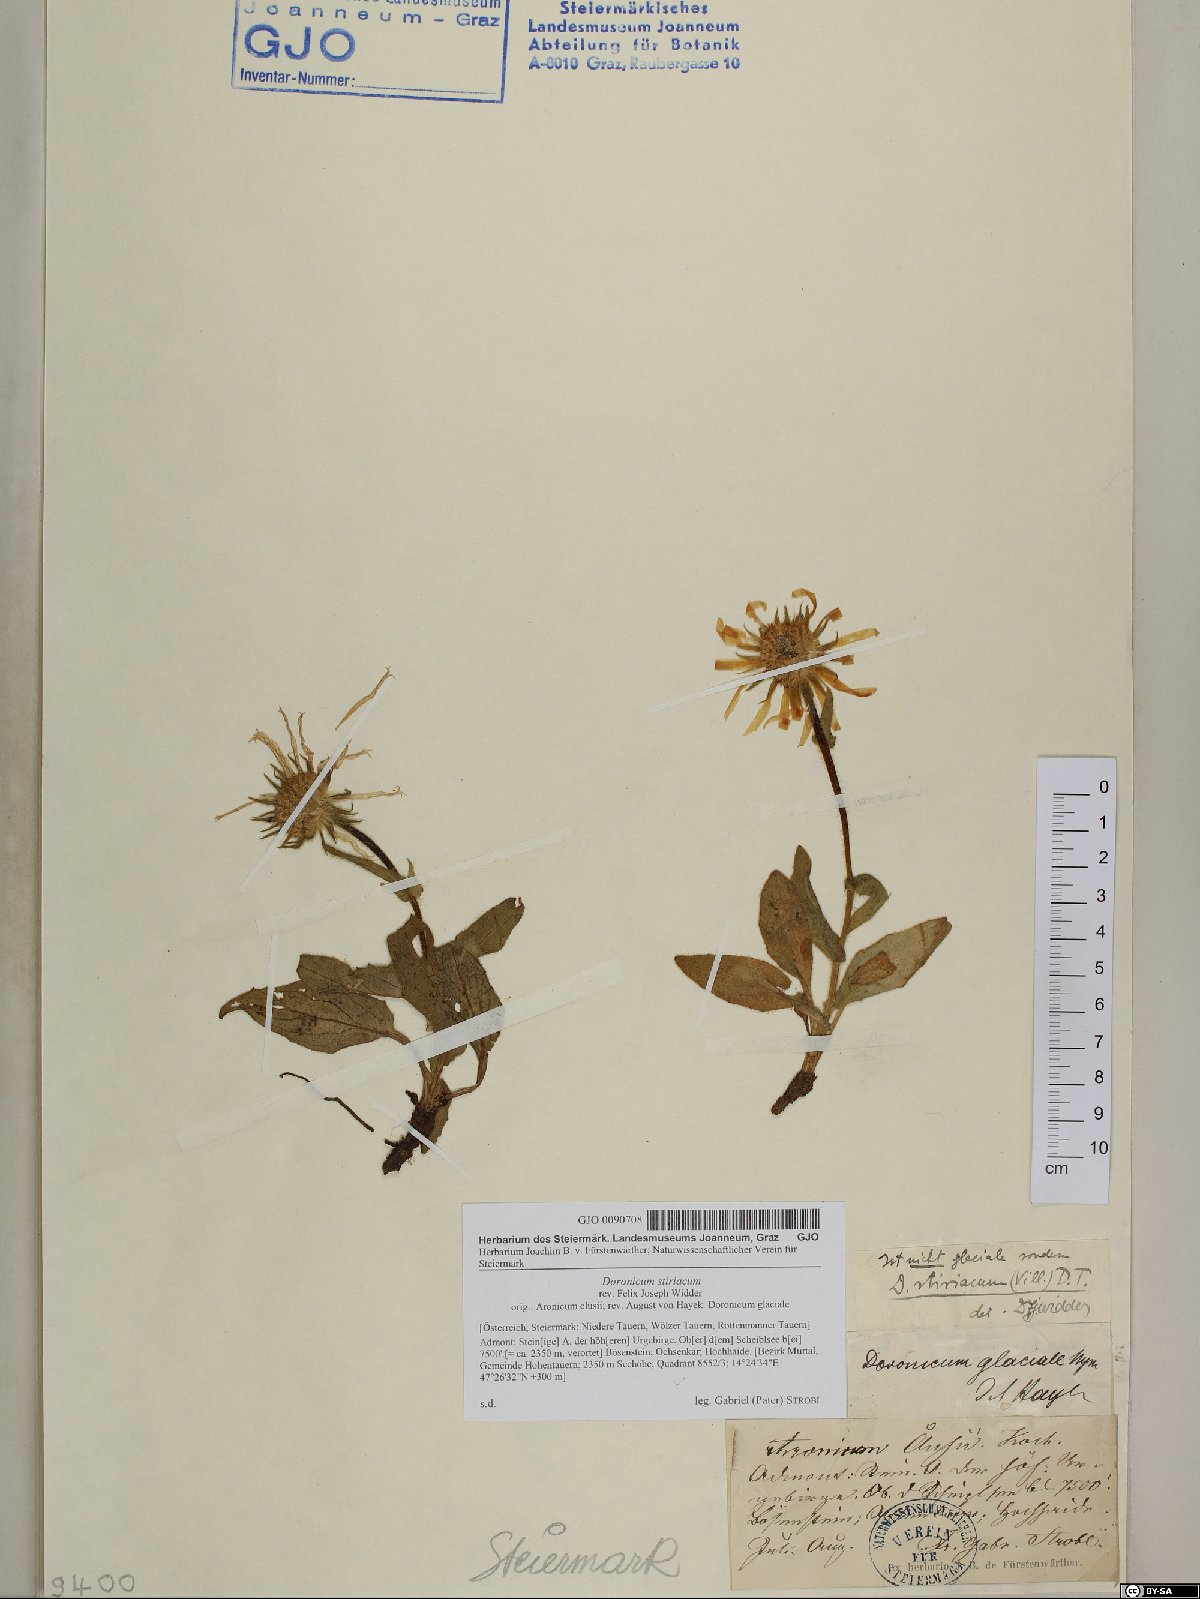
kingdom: Plantae
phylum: Tracheophyta
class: Magnoliopsida
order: Asterales
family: Asteraceae
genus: Doronicum
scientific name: Doronicum clusii
